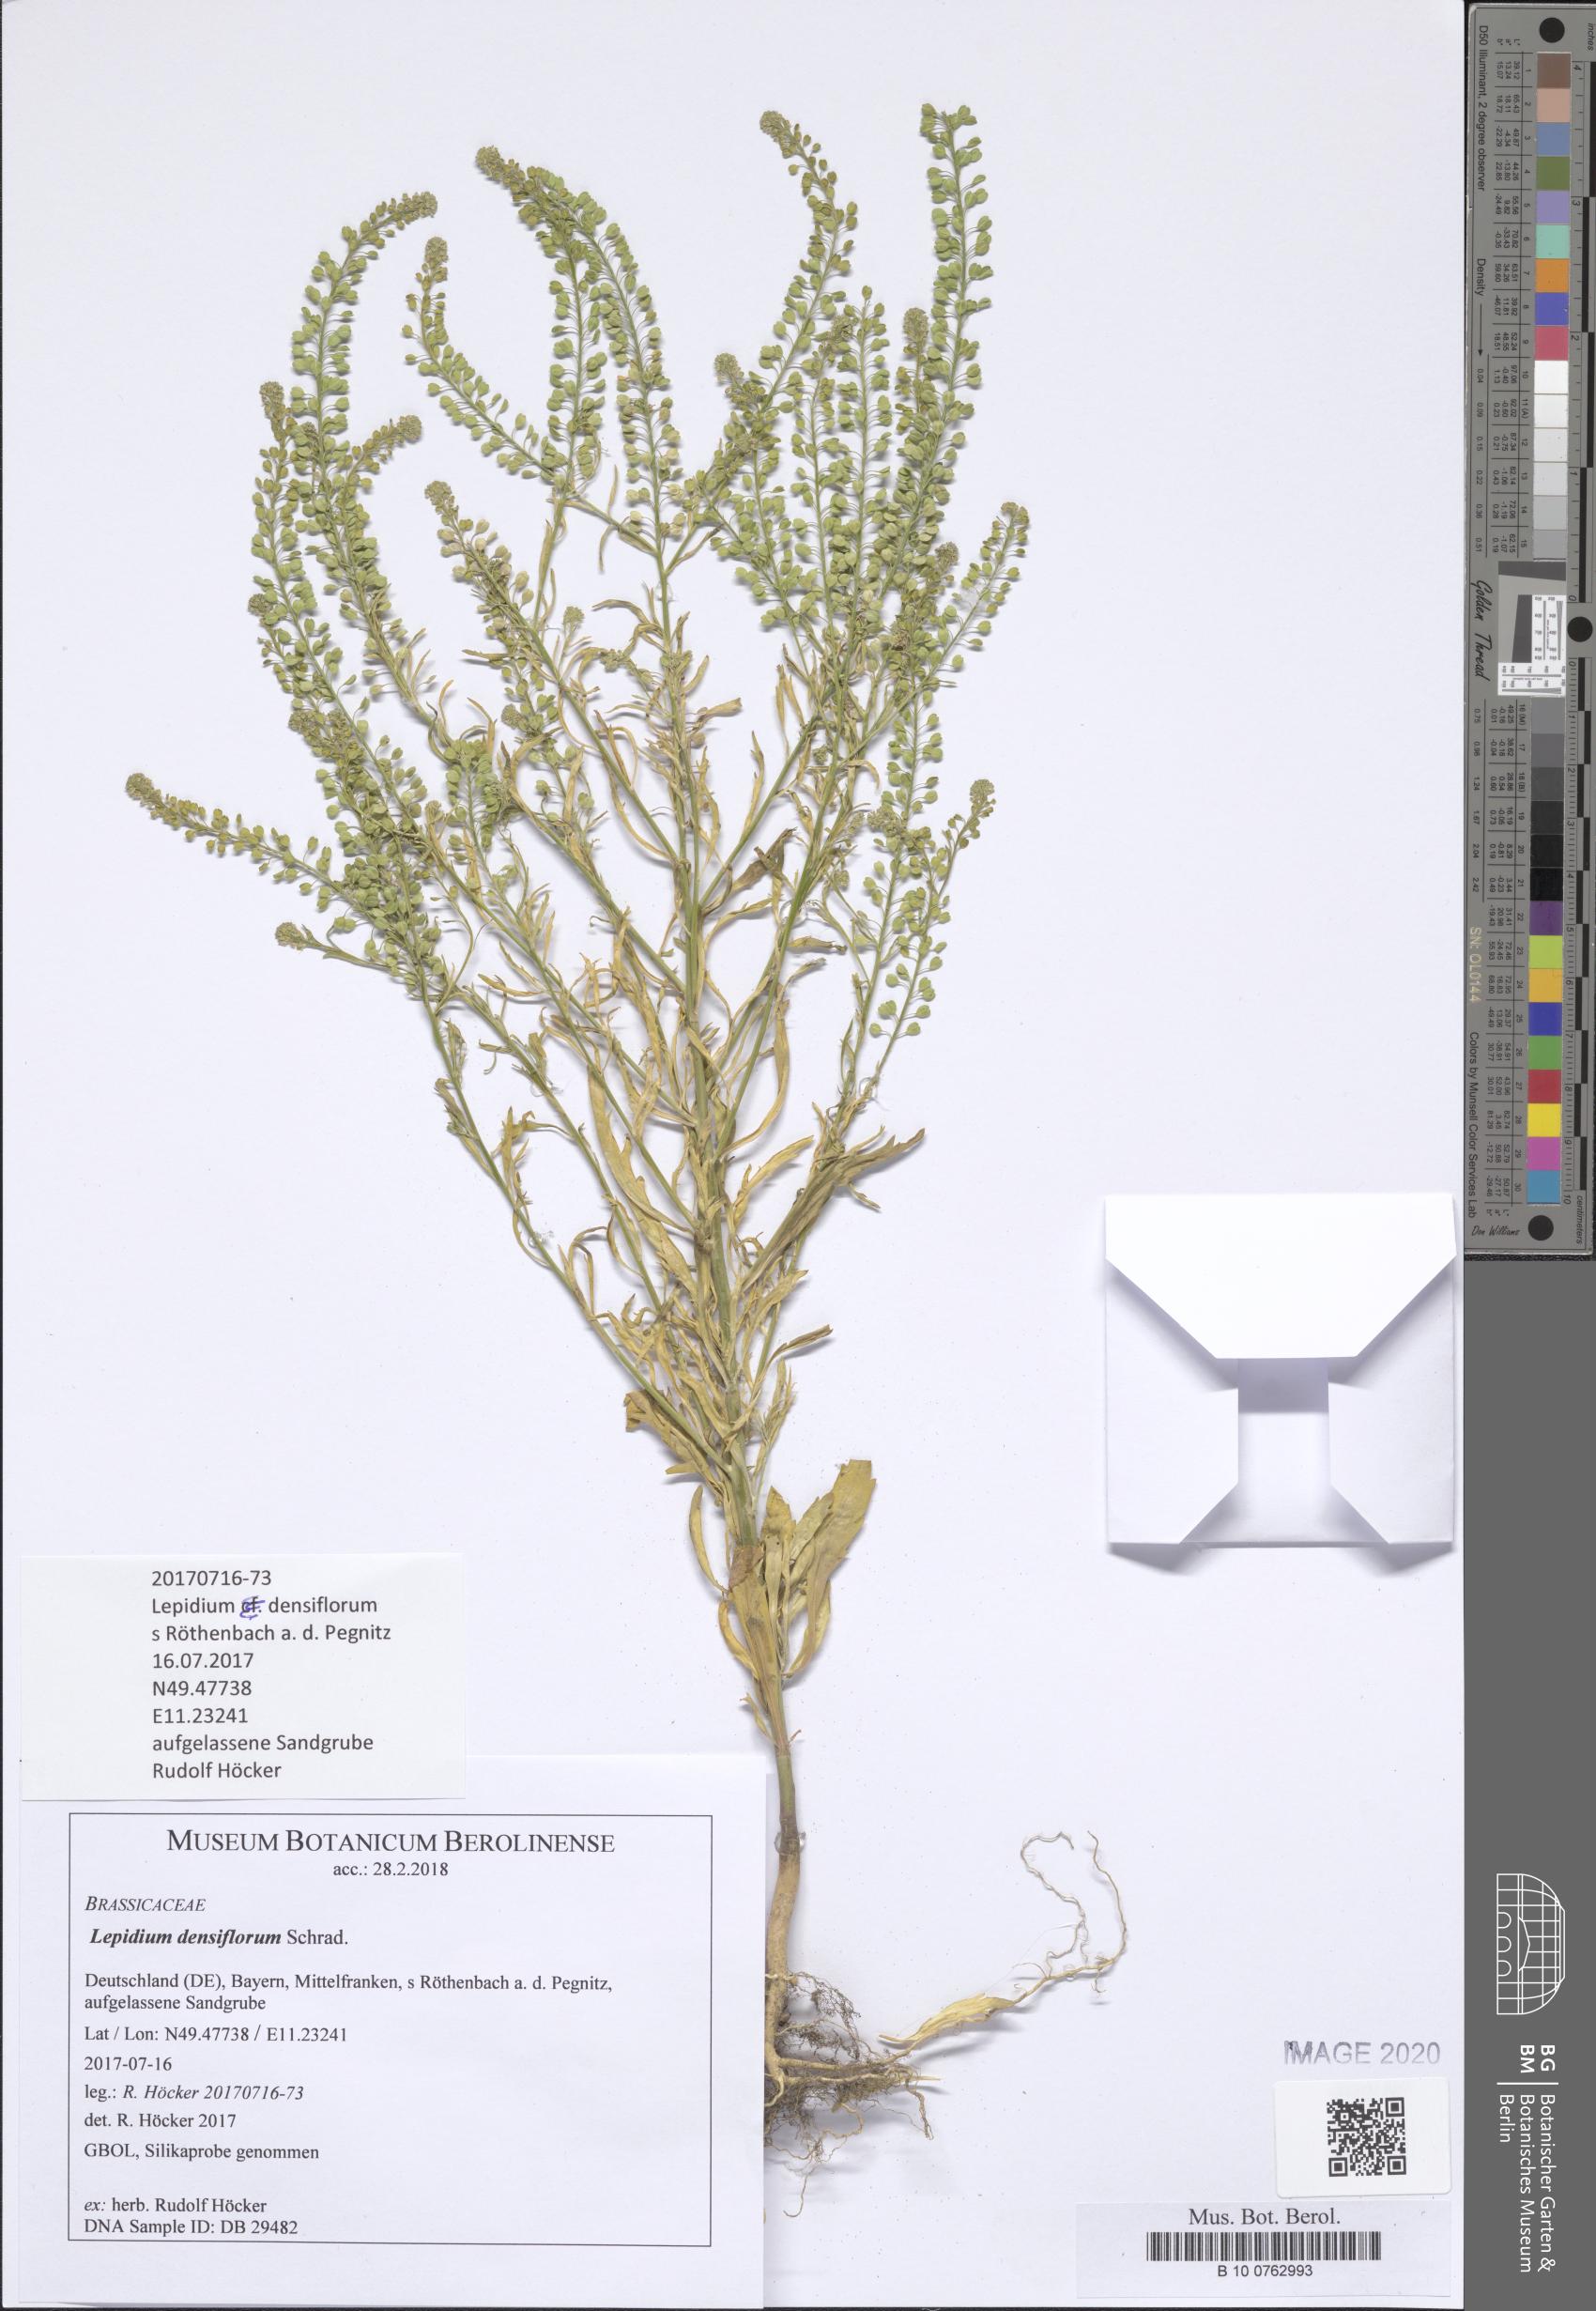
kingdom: Plantae
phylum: Tracheophyta
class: Magnoliopsida
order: Brassicales
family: Brassicaceae
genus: Lepidium
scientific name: Lepidium densiflorum
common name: Miner's pepperwort
